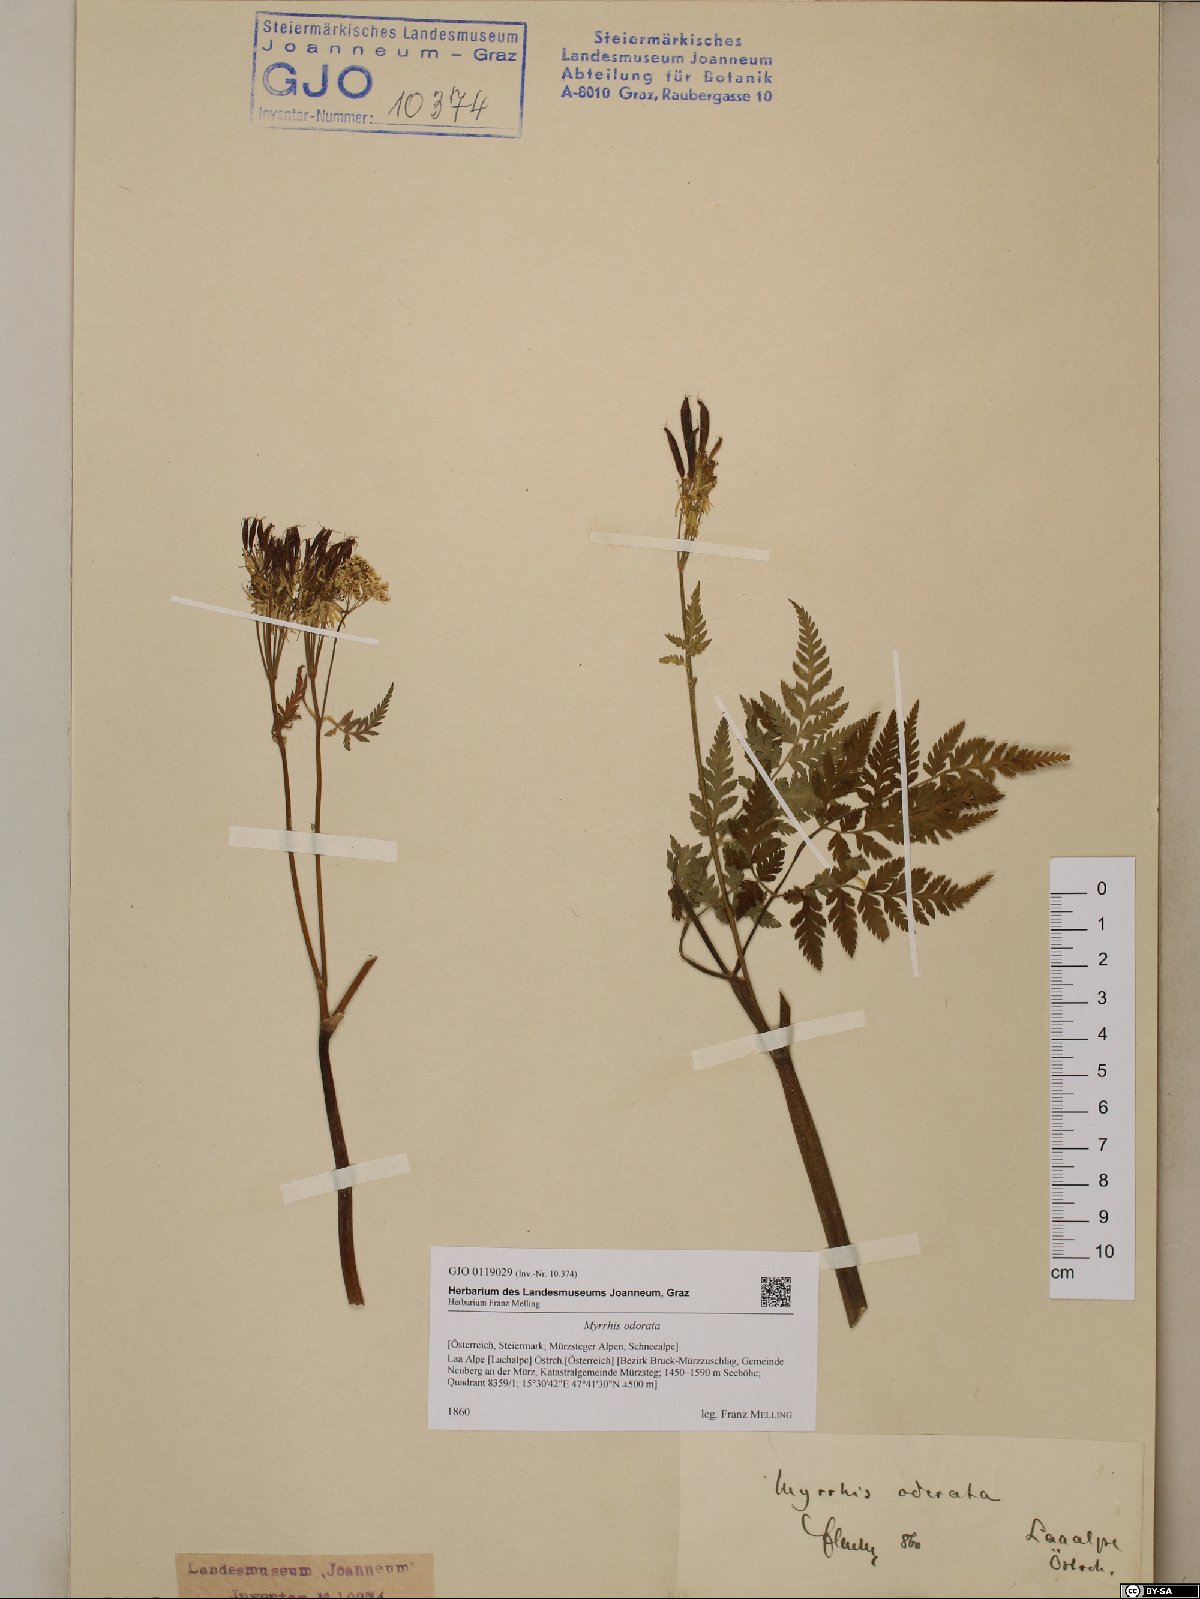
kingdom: Plantae
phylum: Tracheophyta
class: Magnoliopsida
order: Apiales
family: Apiaceae
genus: Myrrhis
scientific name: Myrrhis odorata
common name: Sweet cicely
